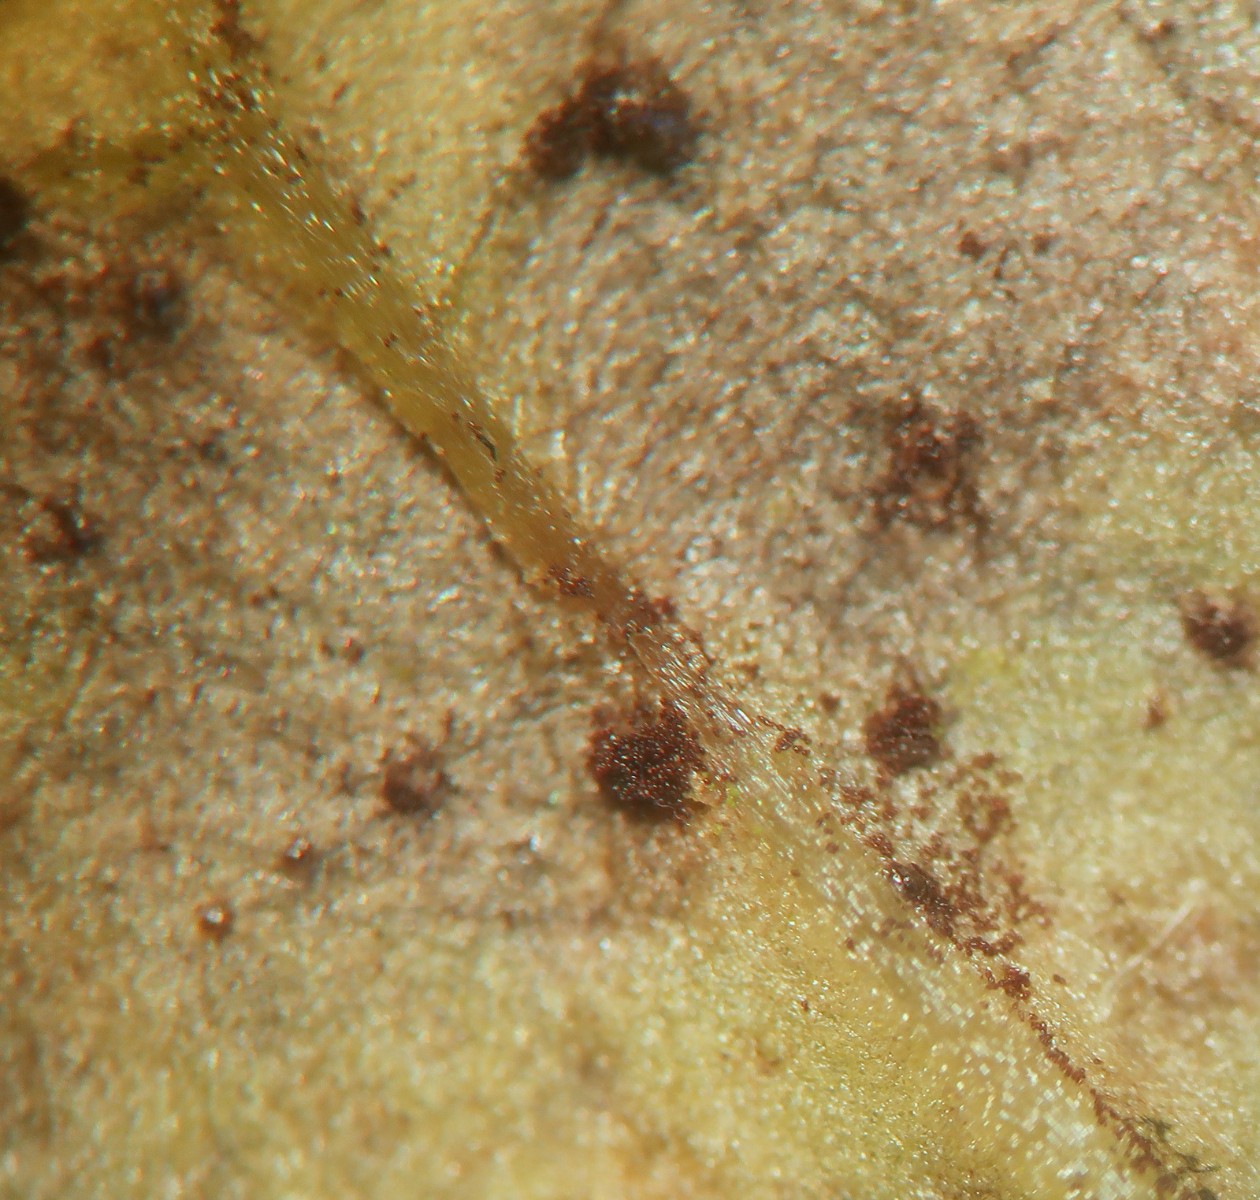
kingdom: Fungi
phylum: Basidiomycota
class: Pucciniomycetes
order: Pucciniales
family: Pucciniaceae
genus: Puccinia
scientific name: Puccinia laschii
